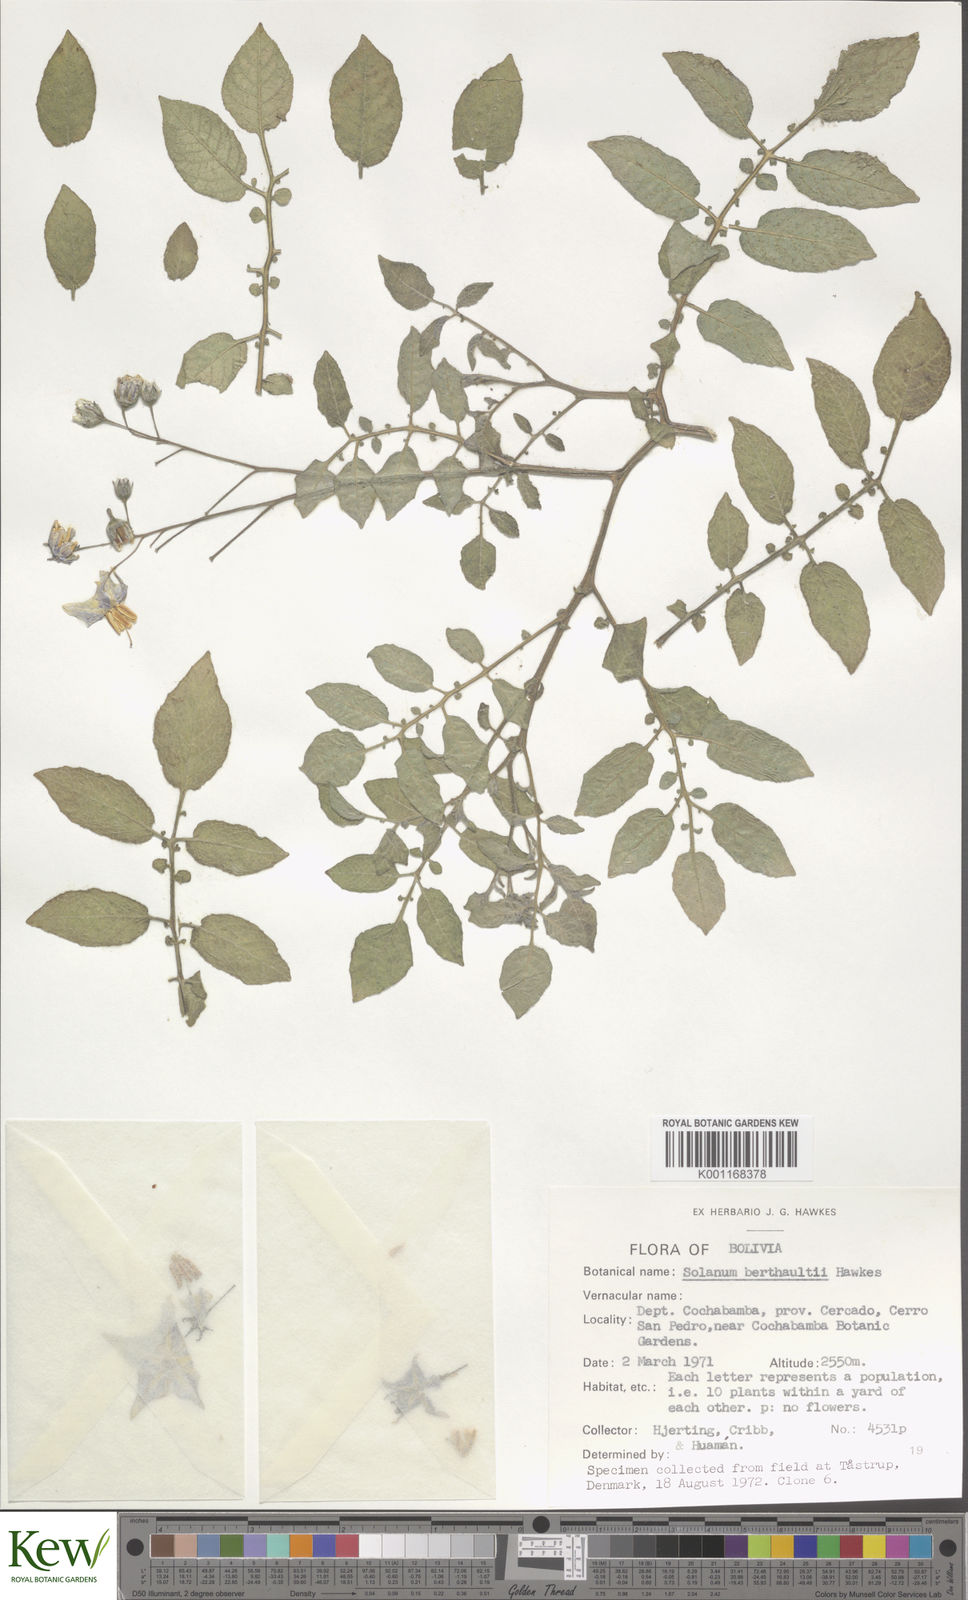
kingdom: Plantae
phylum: Tracheophyta
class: Magnoliopsida
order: Solanales
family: Solanaceae
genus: Solanum
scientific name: Solanum berthaultii
